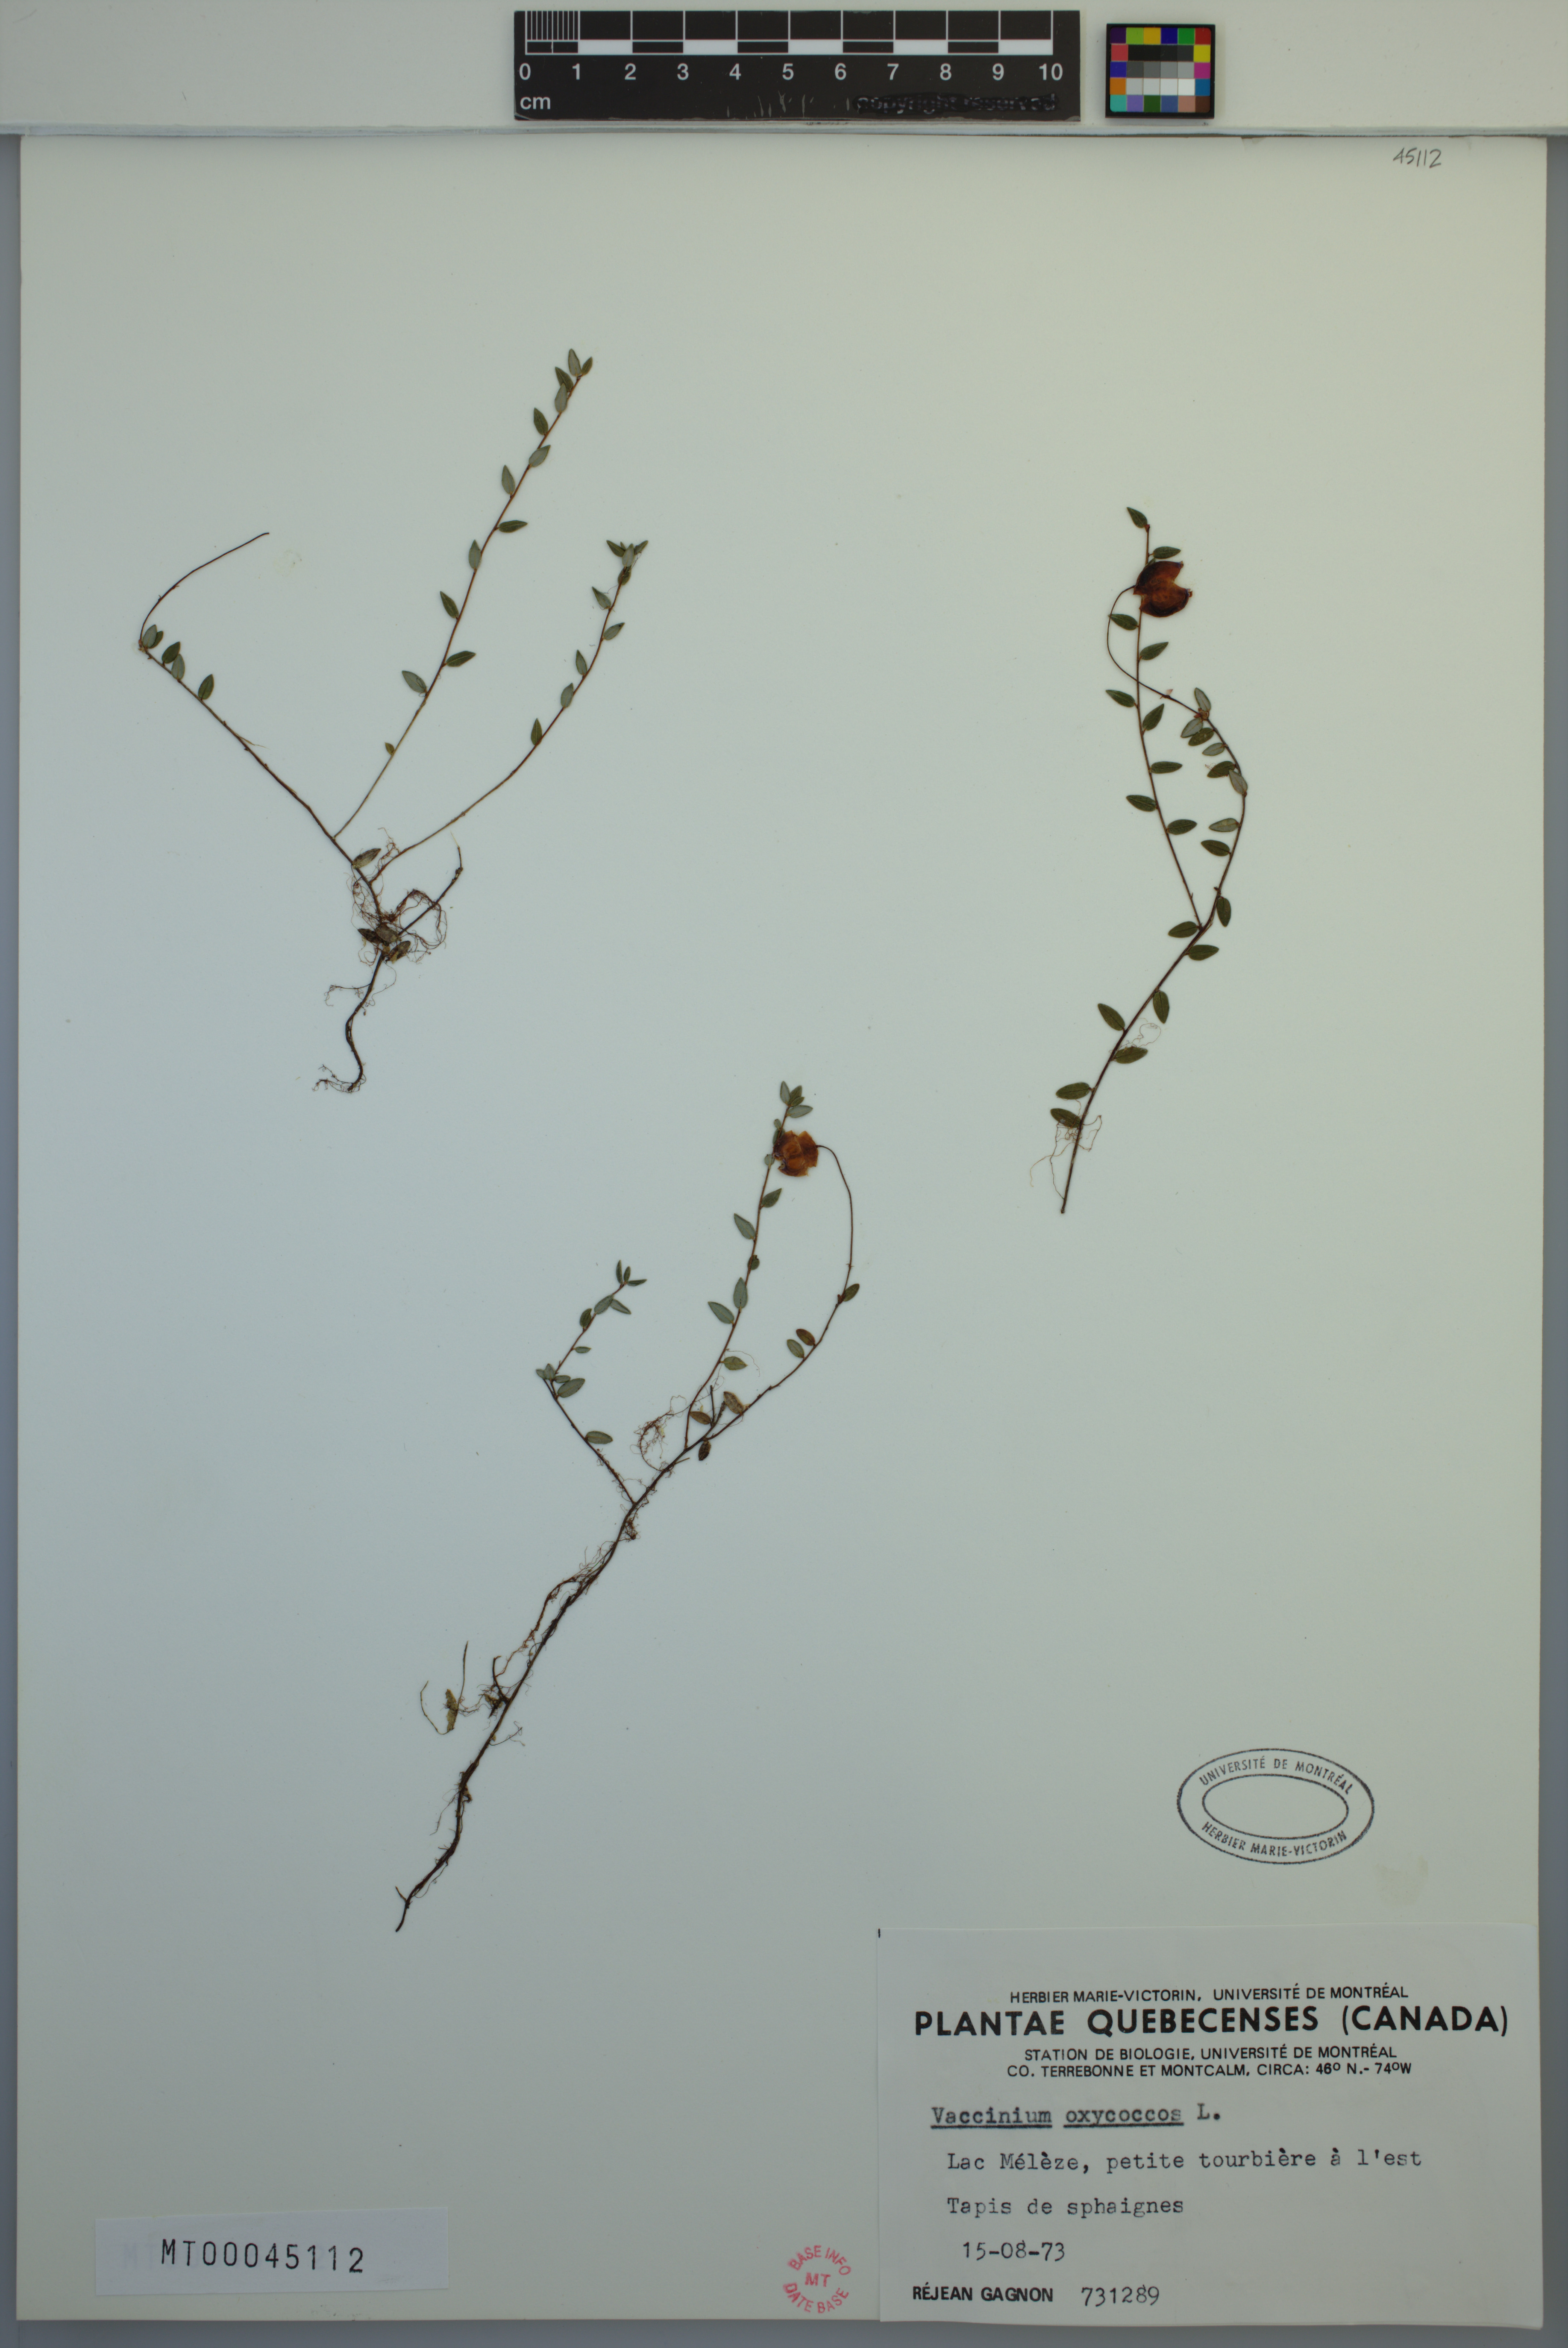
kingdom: Plantae
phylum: Tracheophyta
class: Magnoliopsida
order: Ericales
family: Ericaceae
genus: Vaccinium
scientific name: Vaccinium oxycoccos
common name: Cranberry
